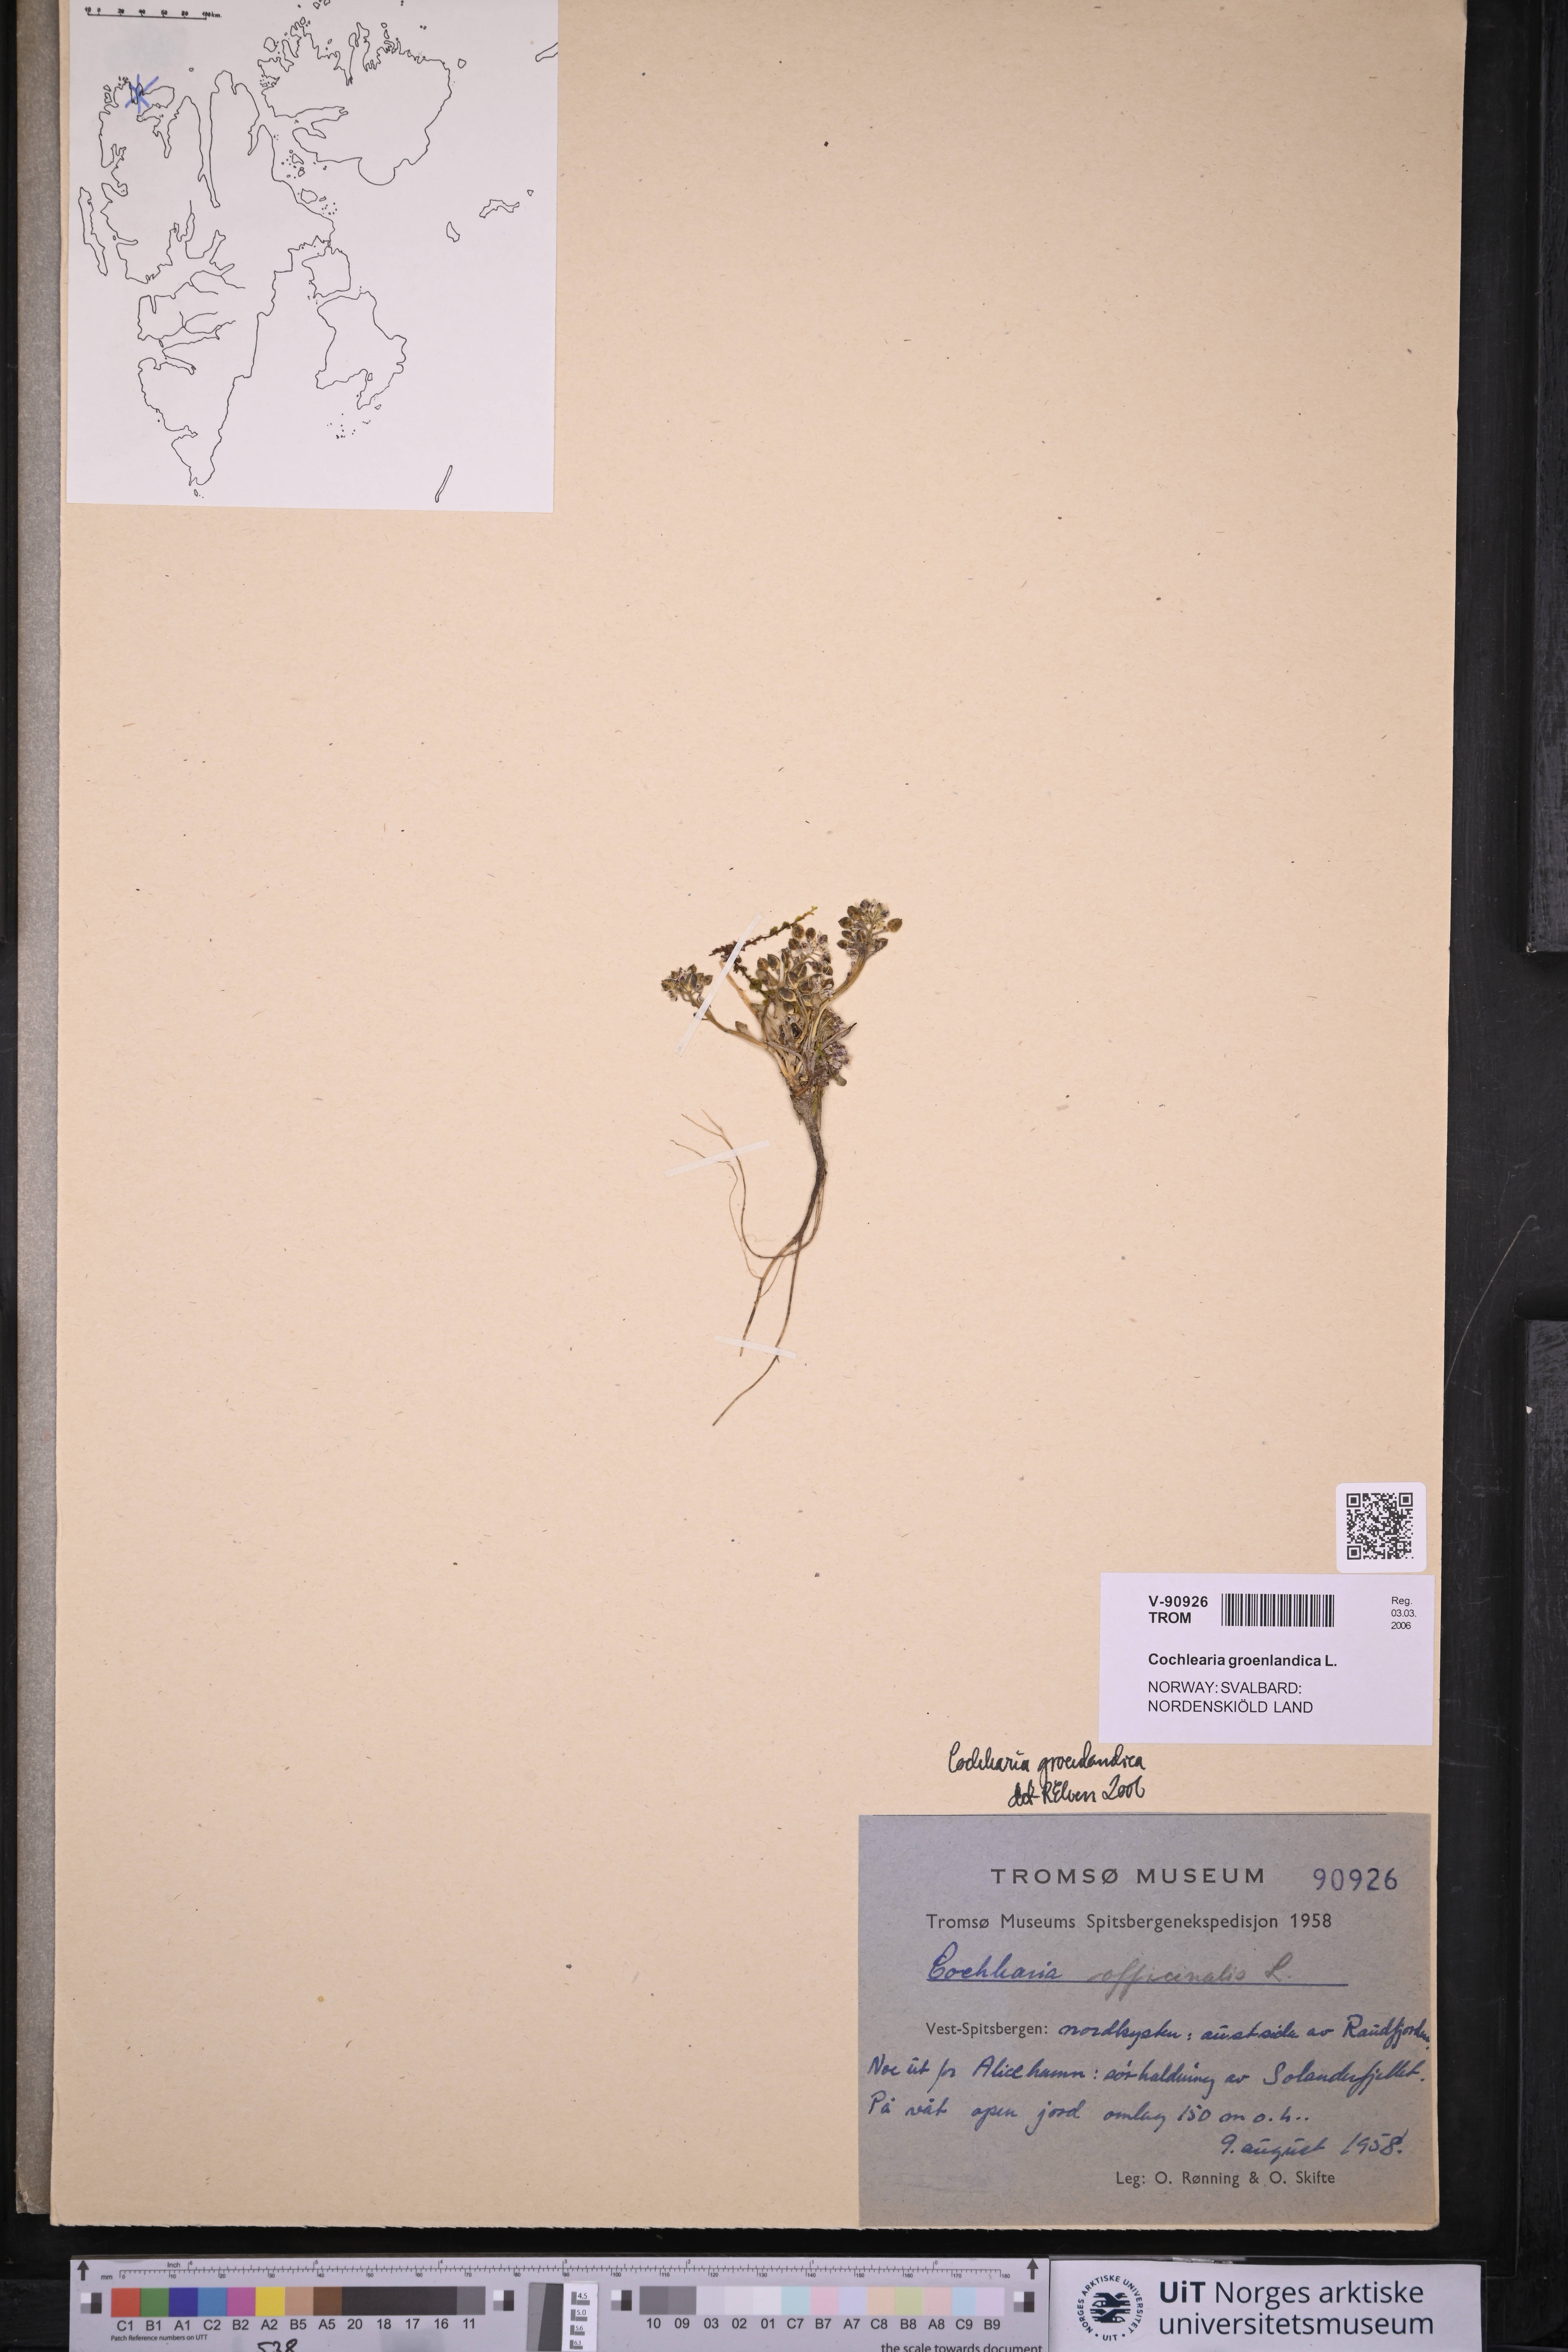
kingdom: Plantae
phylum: Tracheophyta
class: Magnoliopsida
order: Brassicales
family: Brassicaceae
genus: Cochlearia
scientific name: Cochlearia groenlandica
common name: Danish scurvygrass
